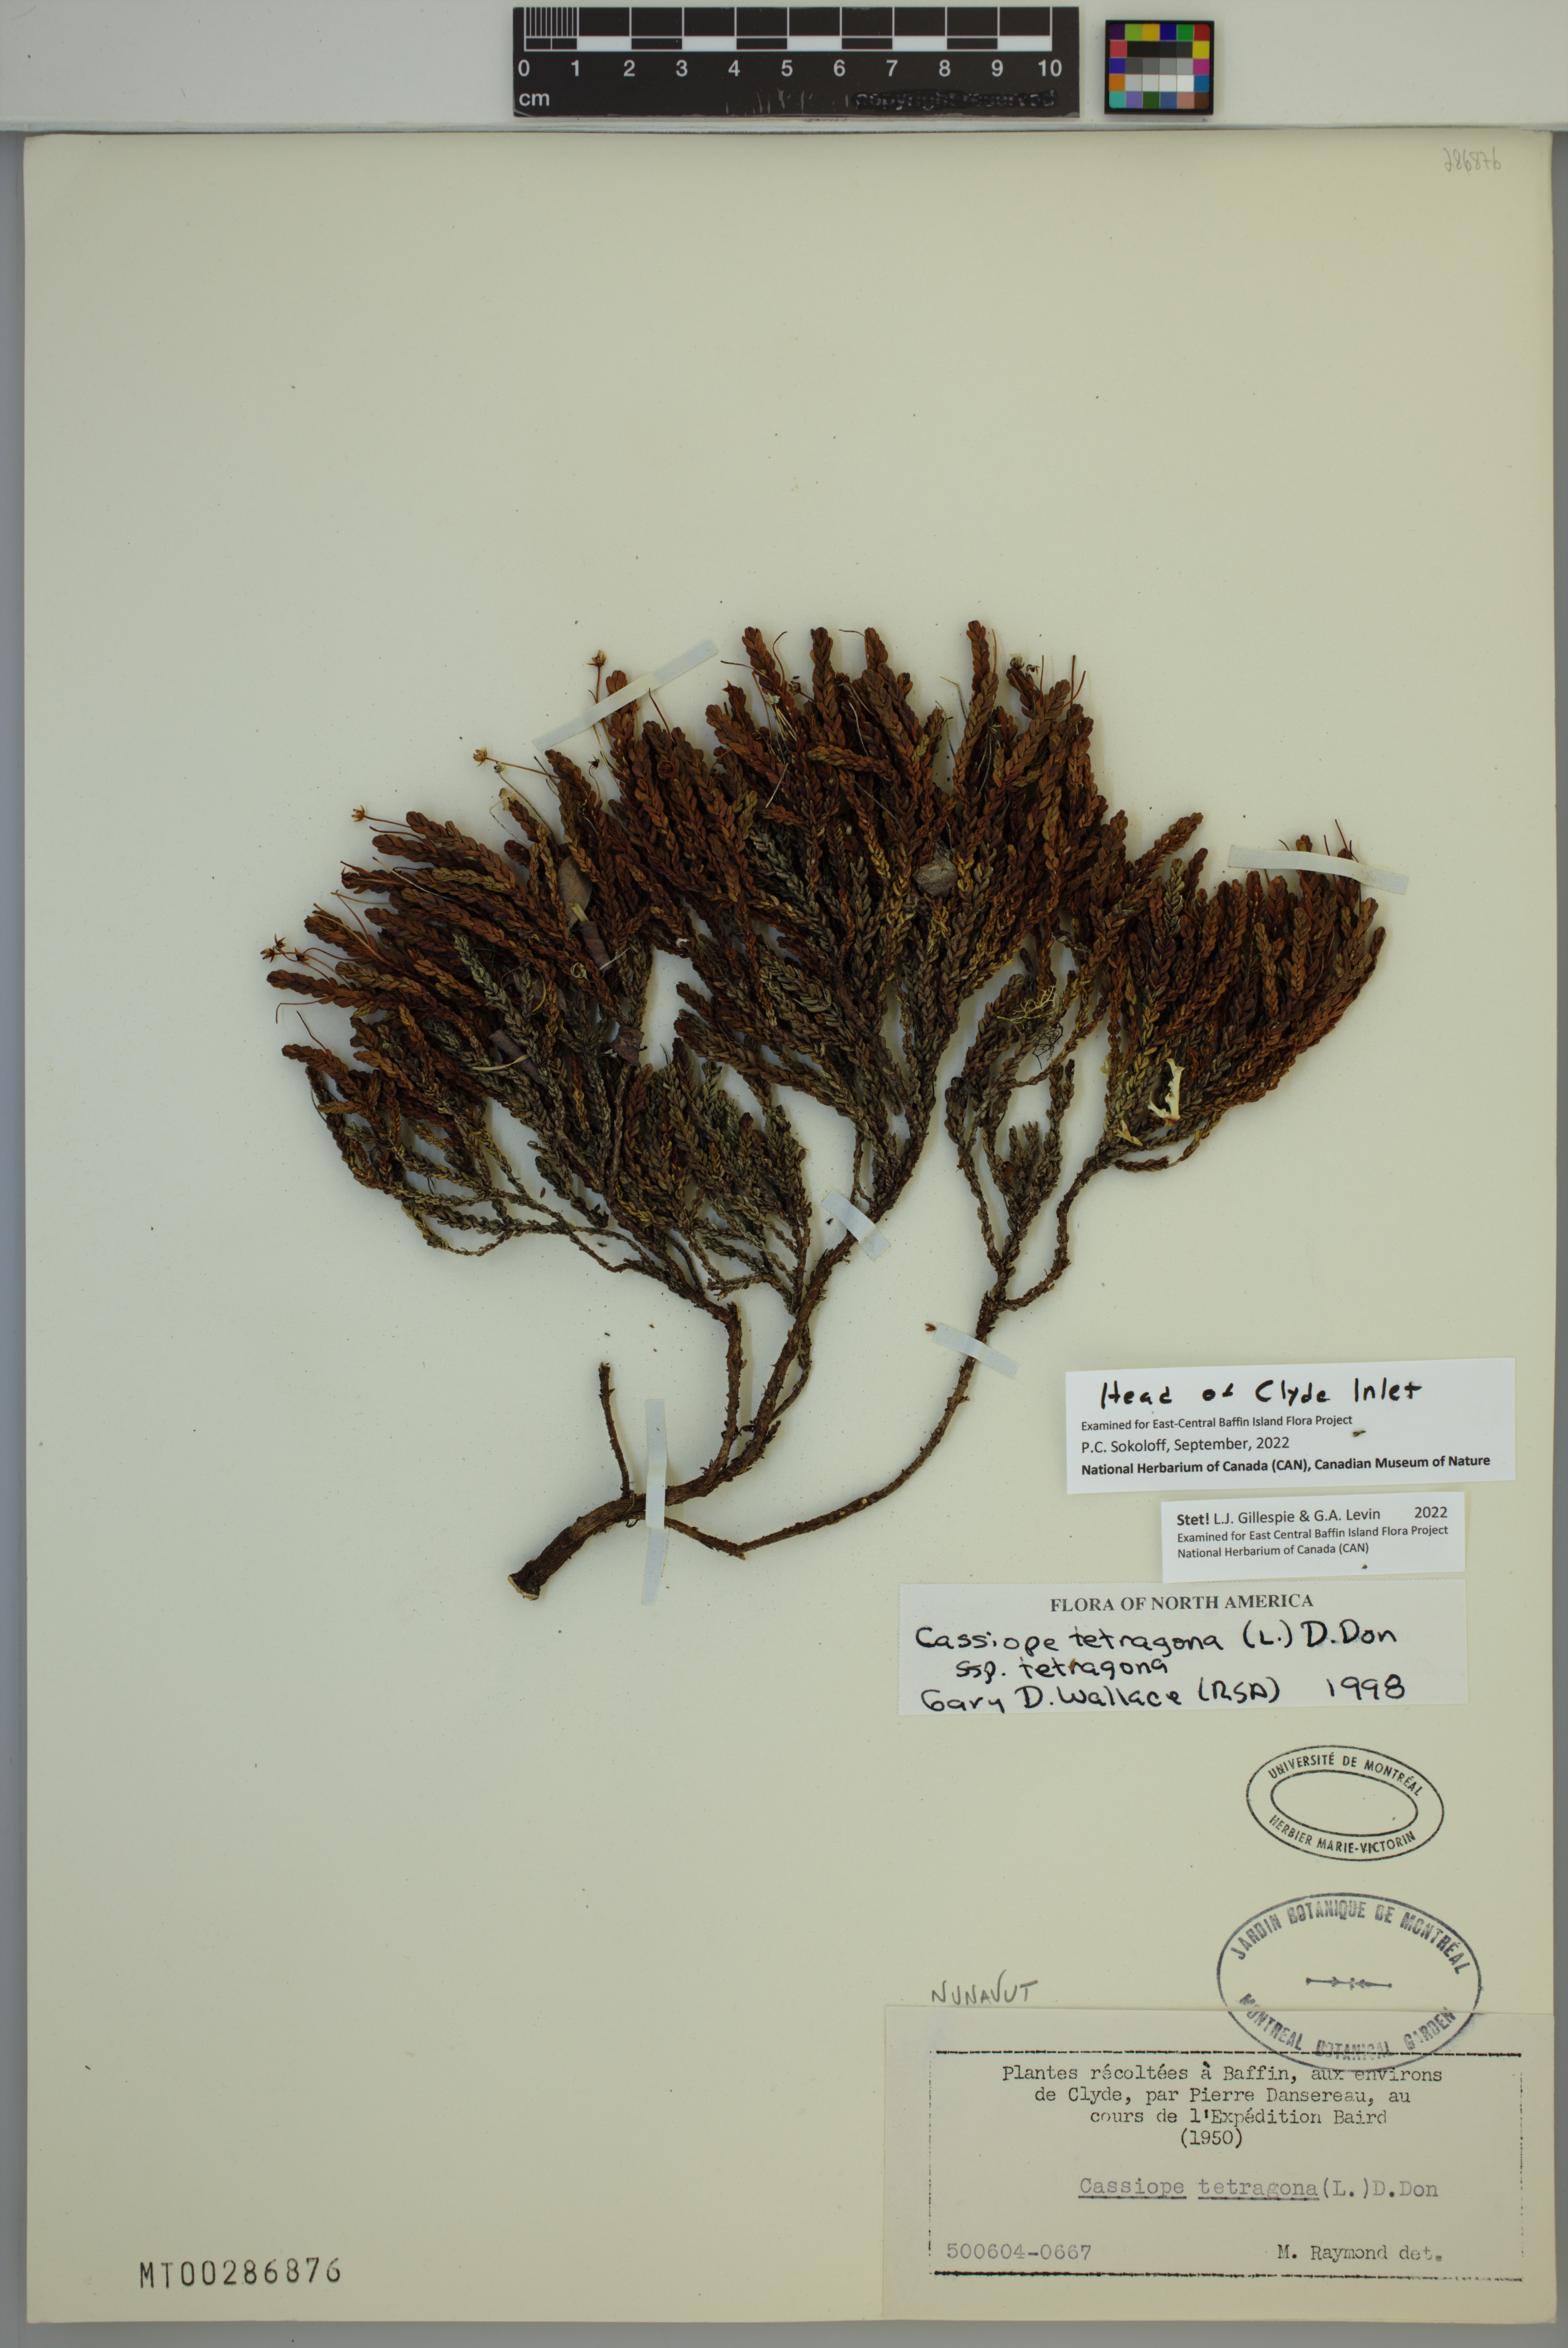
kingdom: Plantae
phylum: Tracheophyta
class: Magnoliopsida
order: Ericales
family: Ericaceae
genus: Cassiope
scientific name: Cassiope tetragona
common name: Arctic bell heather
